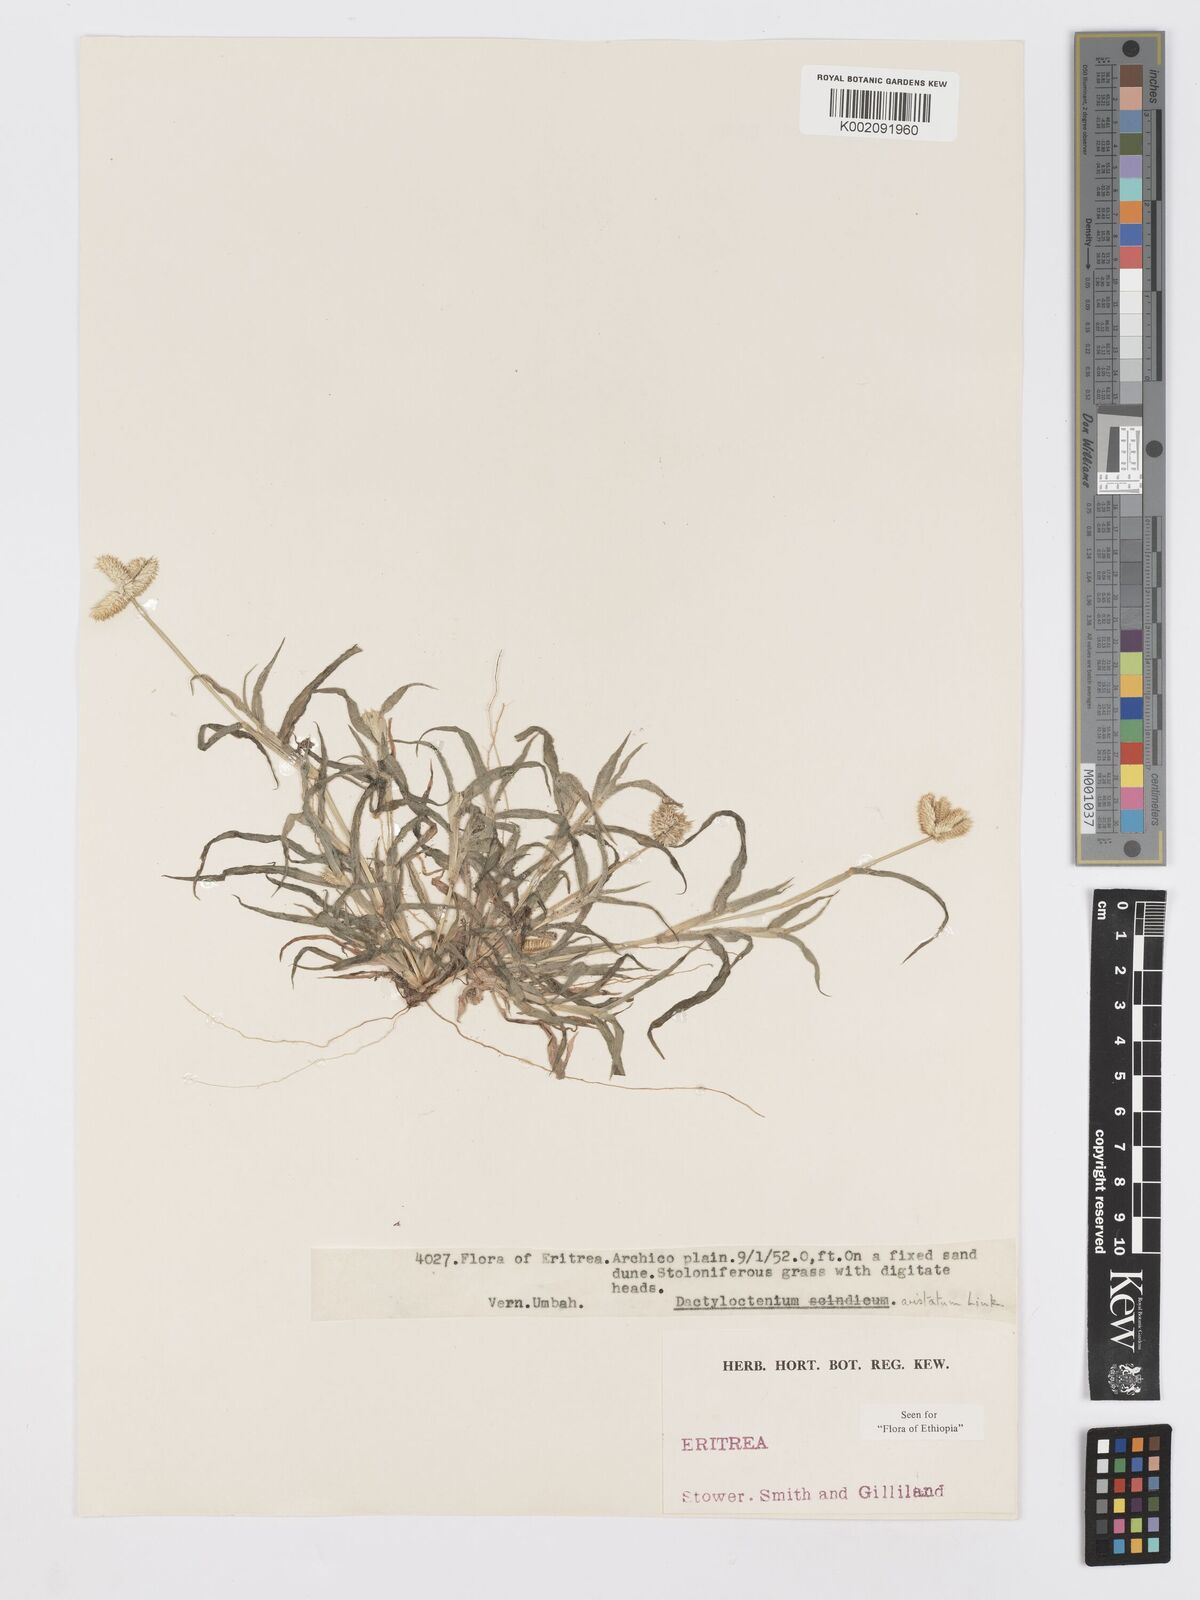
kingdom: Plantae
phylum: Tracheophyta
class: Liliopsida
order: Poales
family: Poaceae
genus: Dactyloctenium
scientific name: Dactyloctenium aristatum
